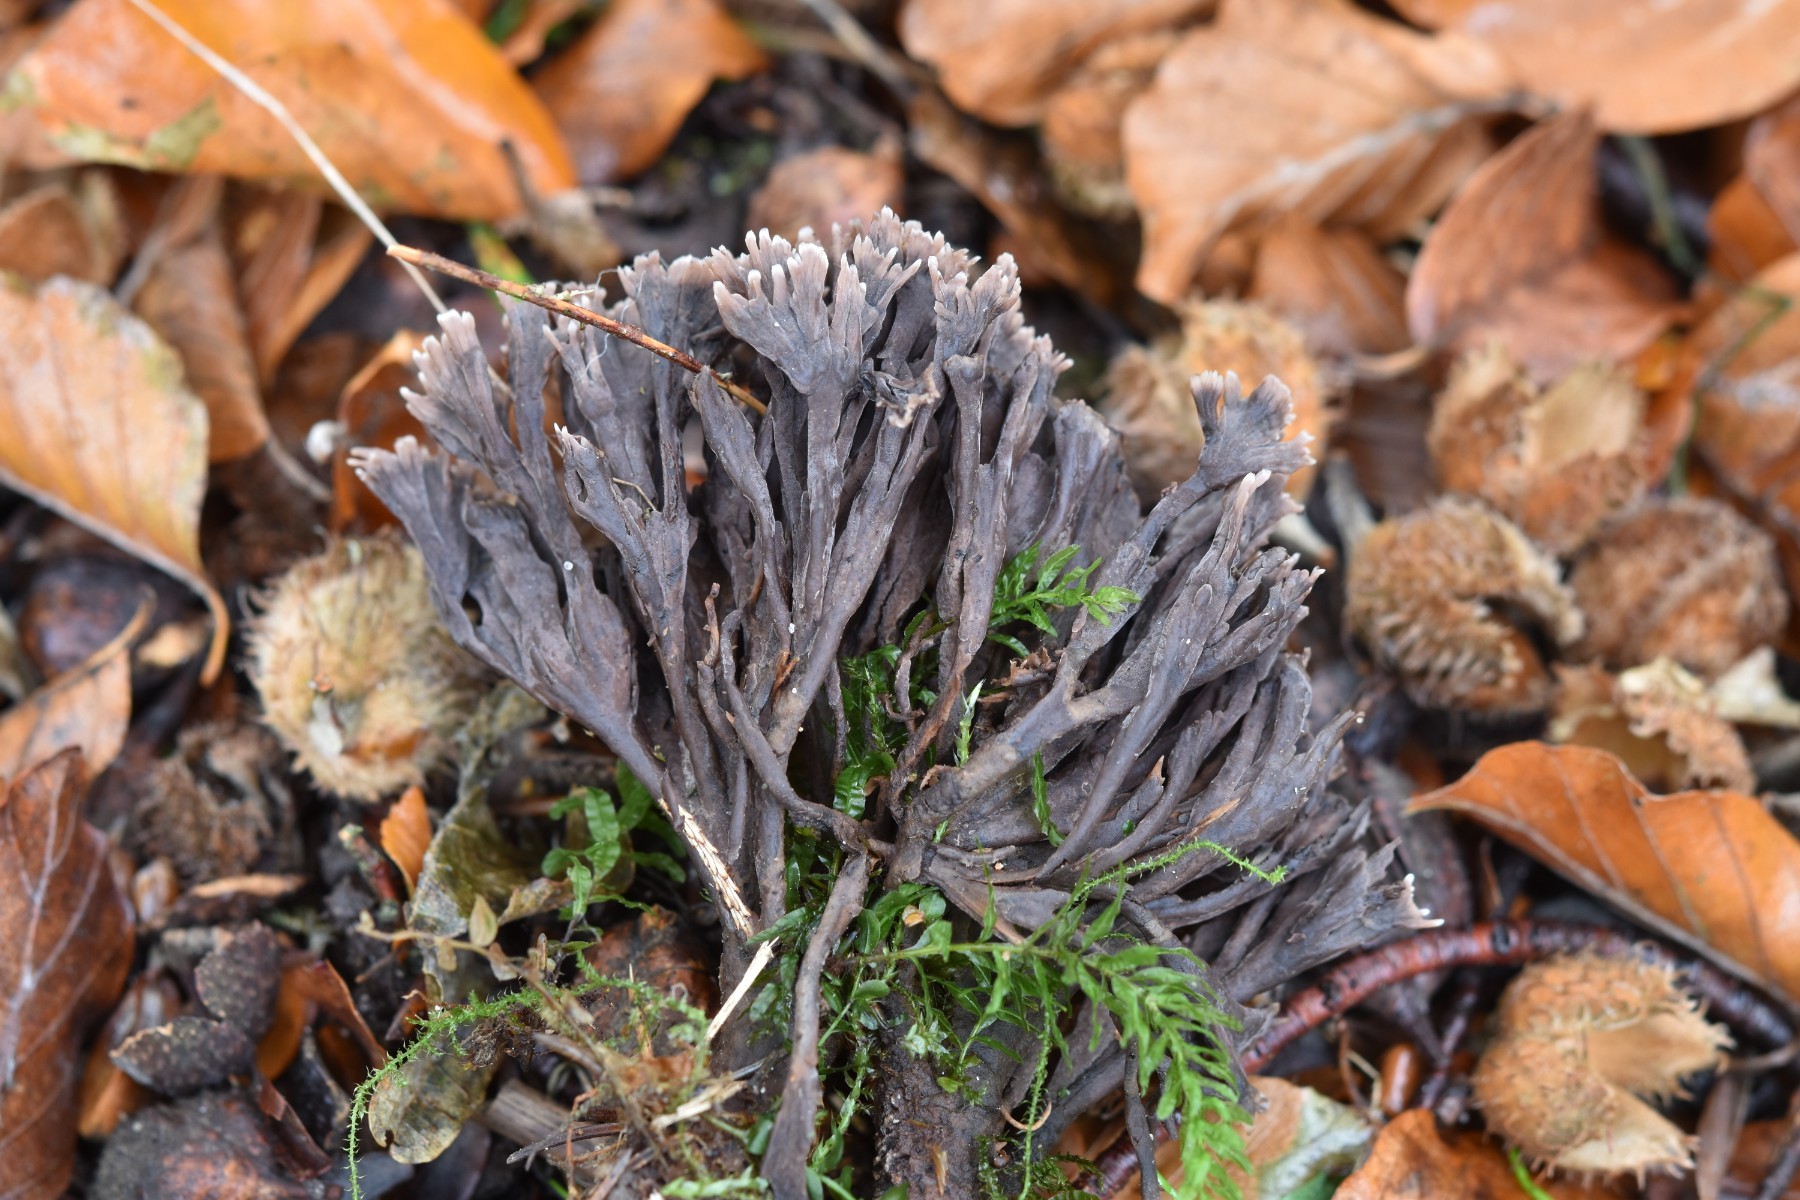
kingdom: Fungi
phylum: Basidiomycota
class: Agaricomycetes
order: Thelephorales
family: Thelephoraceae
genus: Thelephora
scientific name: Thelephora palmata
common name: grenet frynsesvamp
